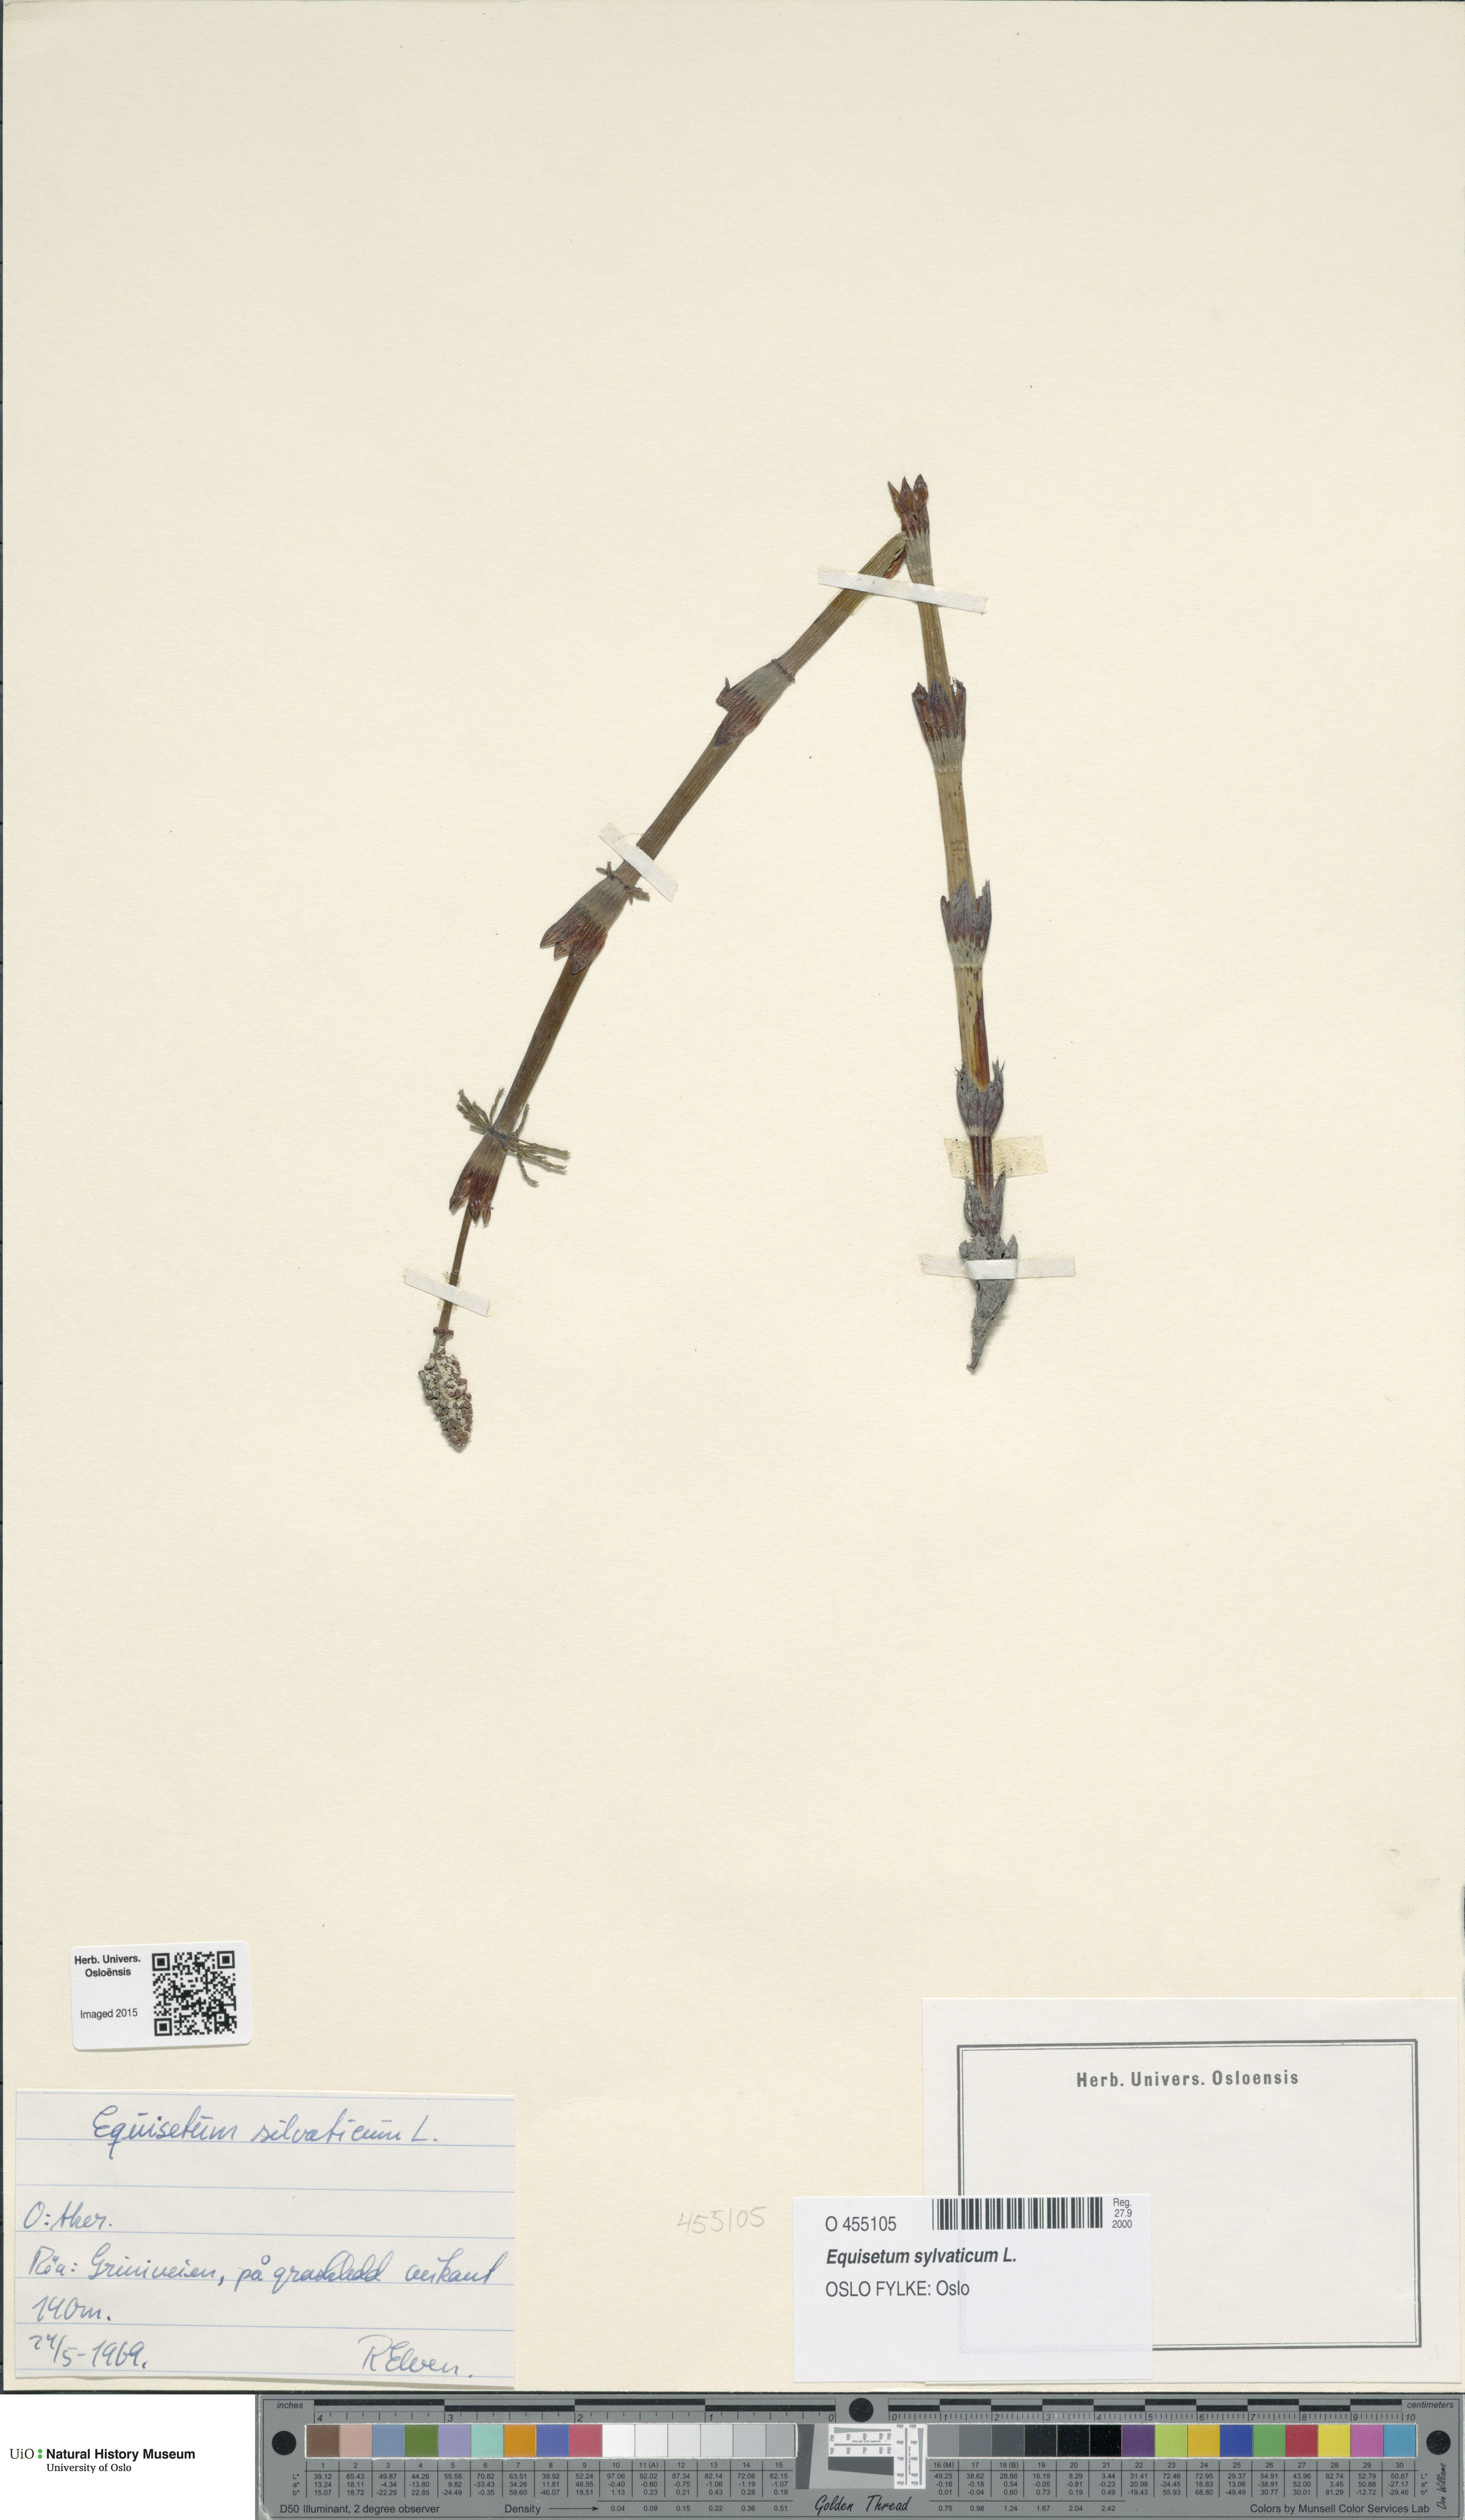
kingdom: Plantae
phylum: Tracheophyta
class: Polypodiopsida
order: Equisetales
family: Equisetaceae
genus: Equisetum
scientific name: Equisetum sylvaticum
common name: Wood horsetail
